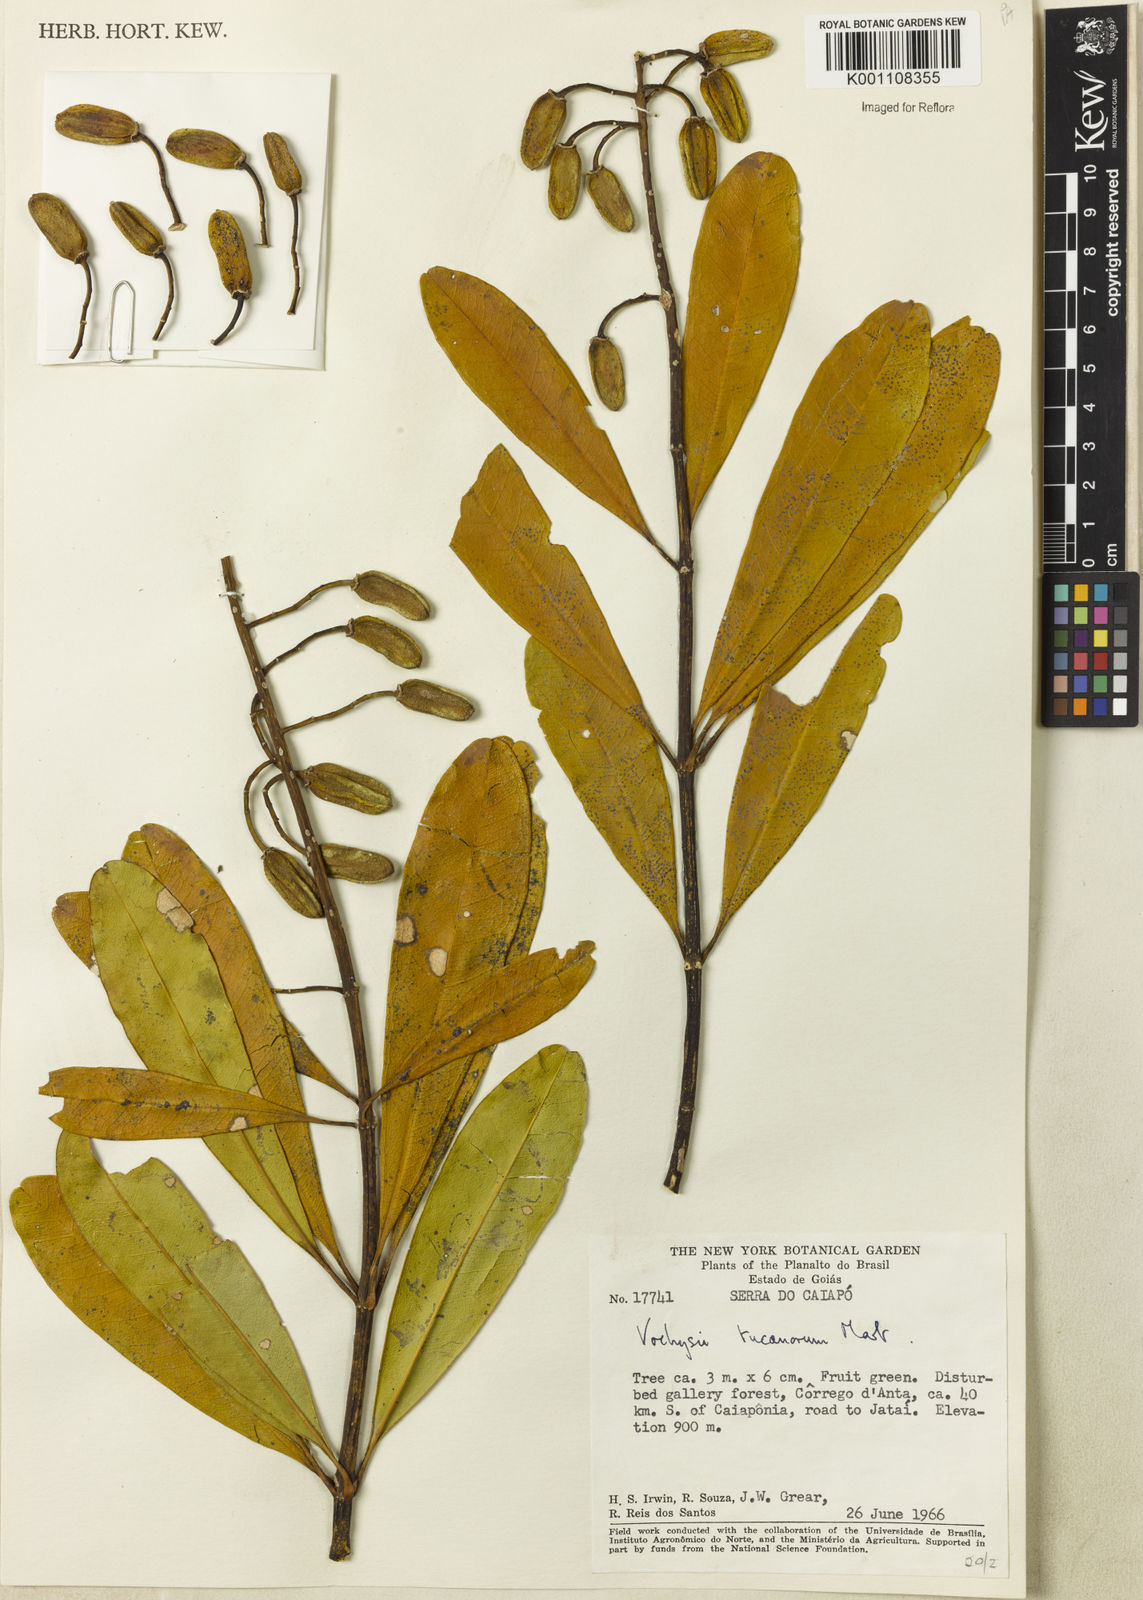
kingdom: Plantae
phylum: Tracheophyta
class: Magnoliopsida
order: Myrtales
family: Vochysiaceae
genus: Vochysia
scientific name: Vochysia tucanorum
